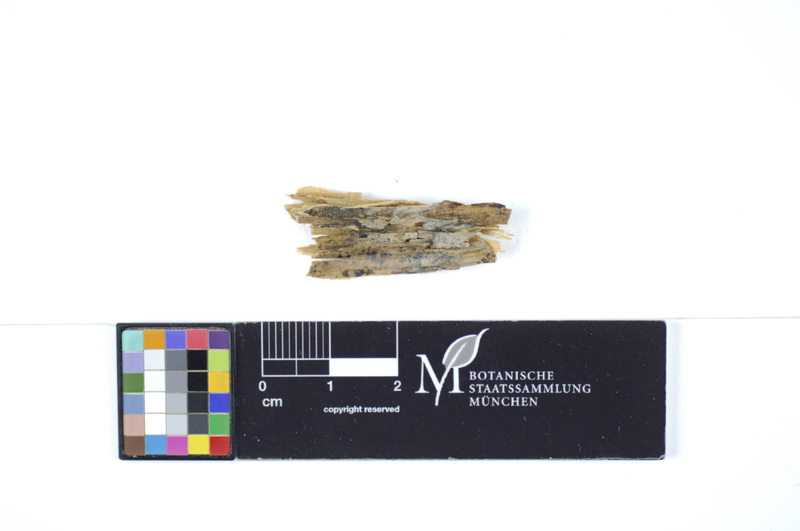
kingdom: Fungi
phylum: Basidiomycota
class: Agaricomycetes
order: Polyporales
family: Hyphodermataceae
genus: Hyphoderma
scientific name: Hyphoderma definitum
